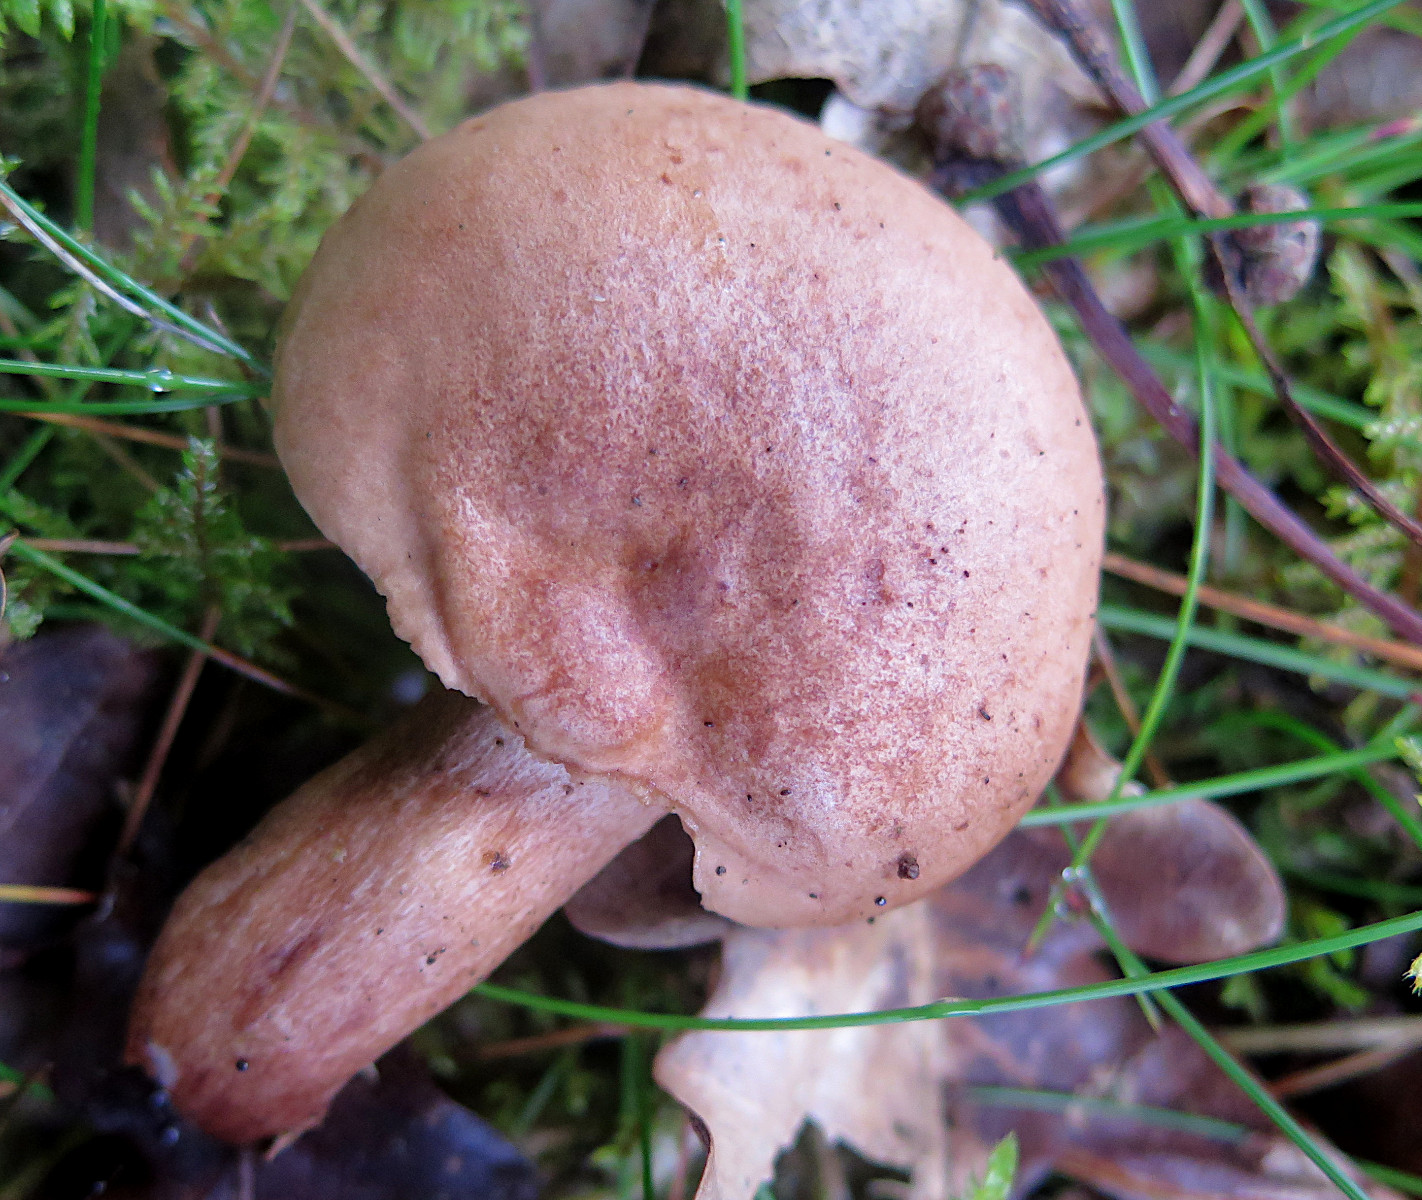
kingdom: Fungi
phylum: Basidiomycota
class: Agaricomycetes
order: Russulales
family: Russulaceae
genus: Lactarius
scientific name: Lactarius quietus
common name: ege-mælkehat
